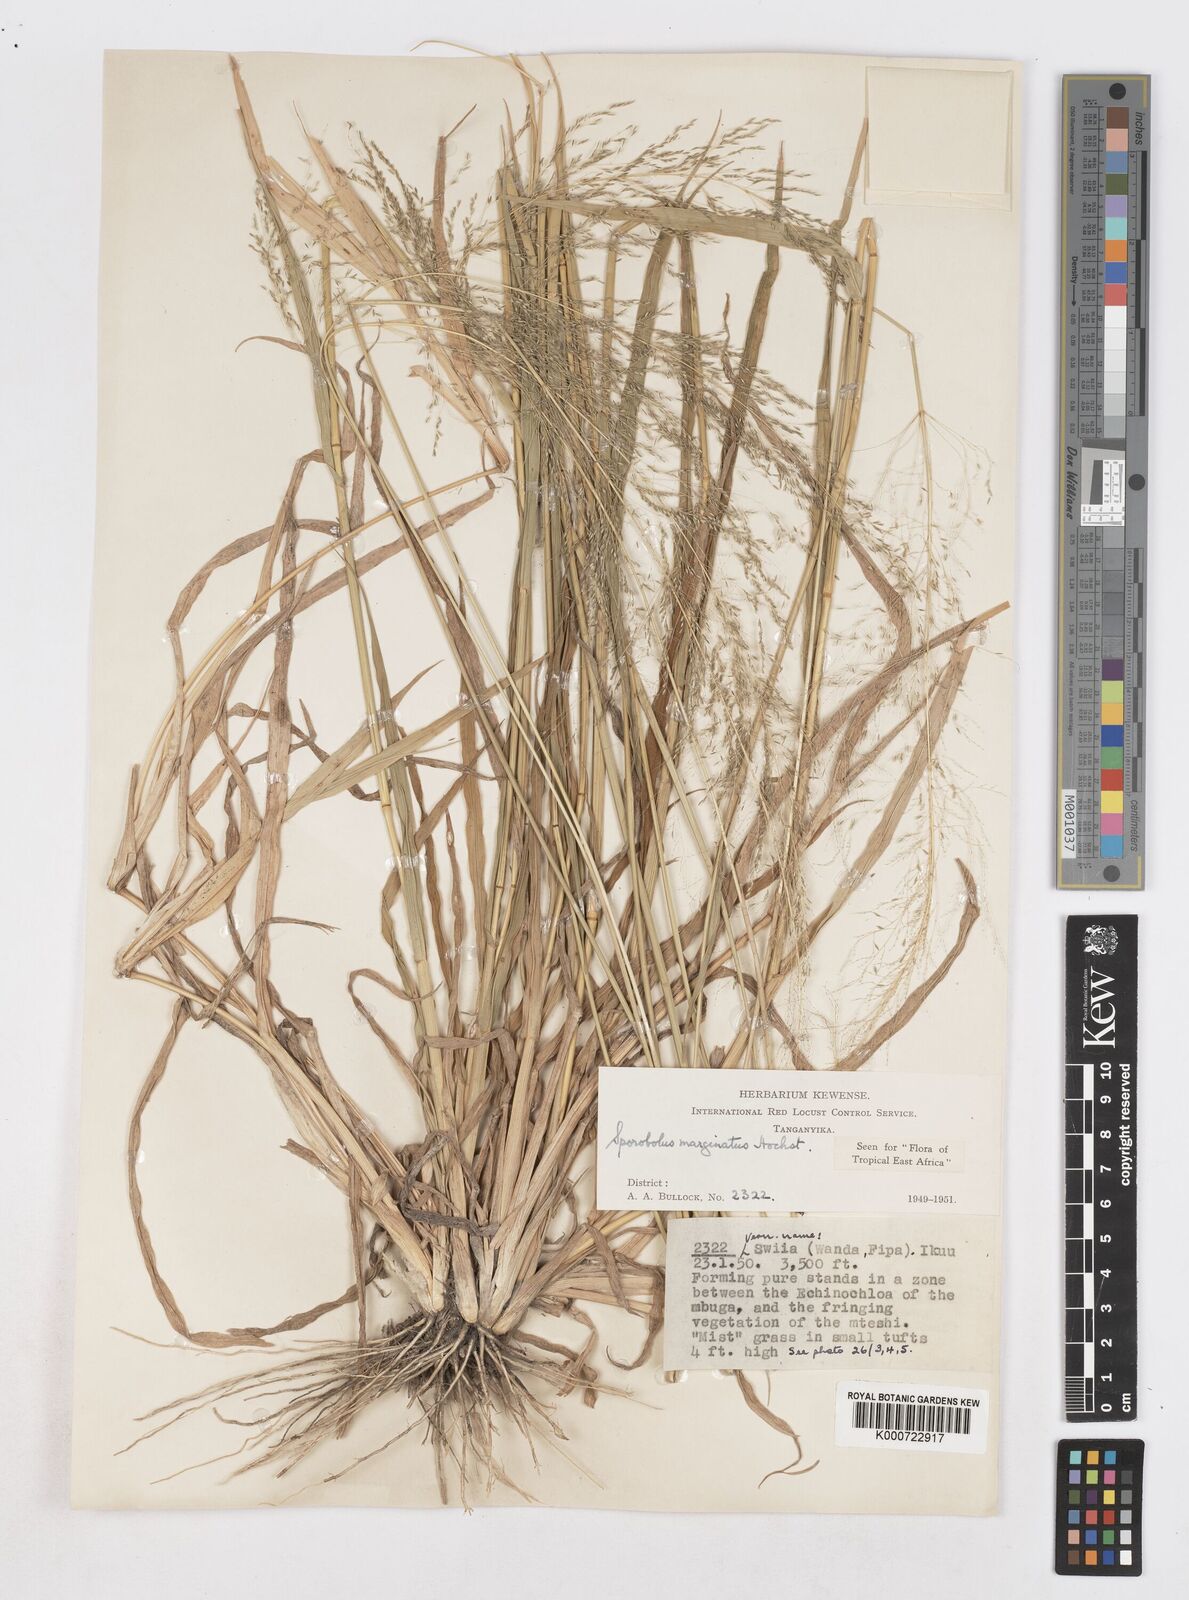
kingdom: Plantae
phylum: Tracheophyta
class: Liliopsida
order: Poales
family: Poaceae
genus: Sporobolus
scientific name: Sporobolus ioclados
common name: Pan dropseed
